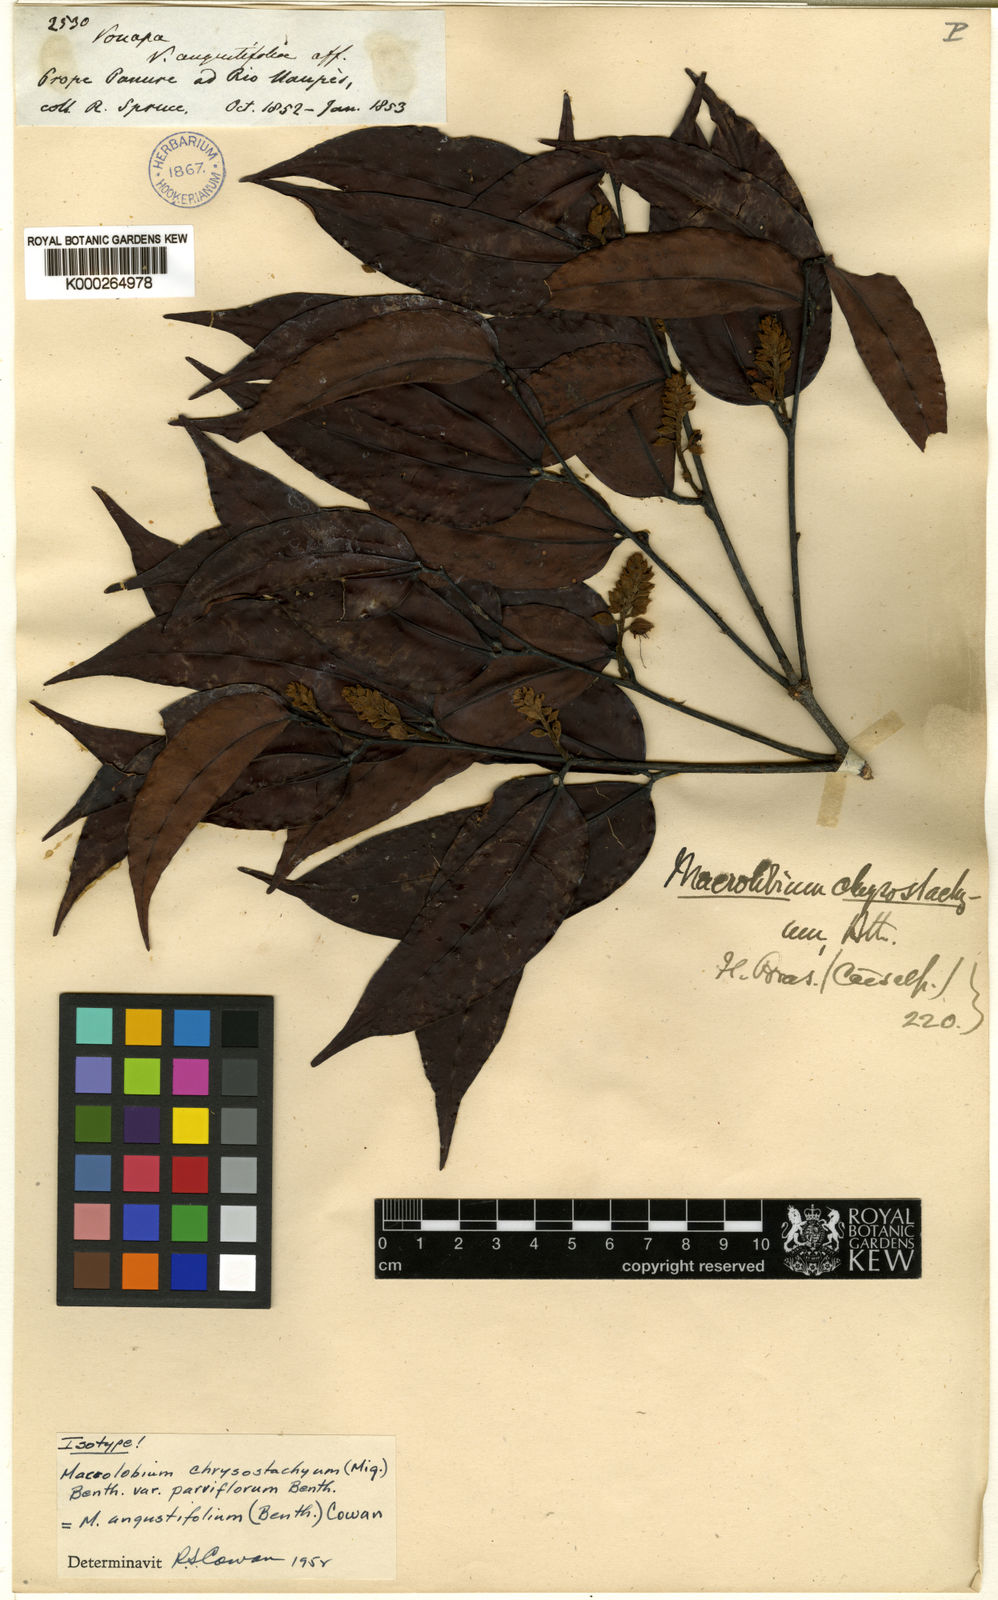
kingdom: Plantae
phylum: Tracheophyta
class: Magnoliopsida
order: Fabales
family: Fabaceae
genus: Macrolobium
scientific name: Macrolobium angustifolium
